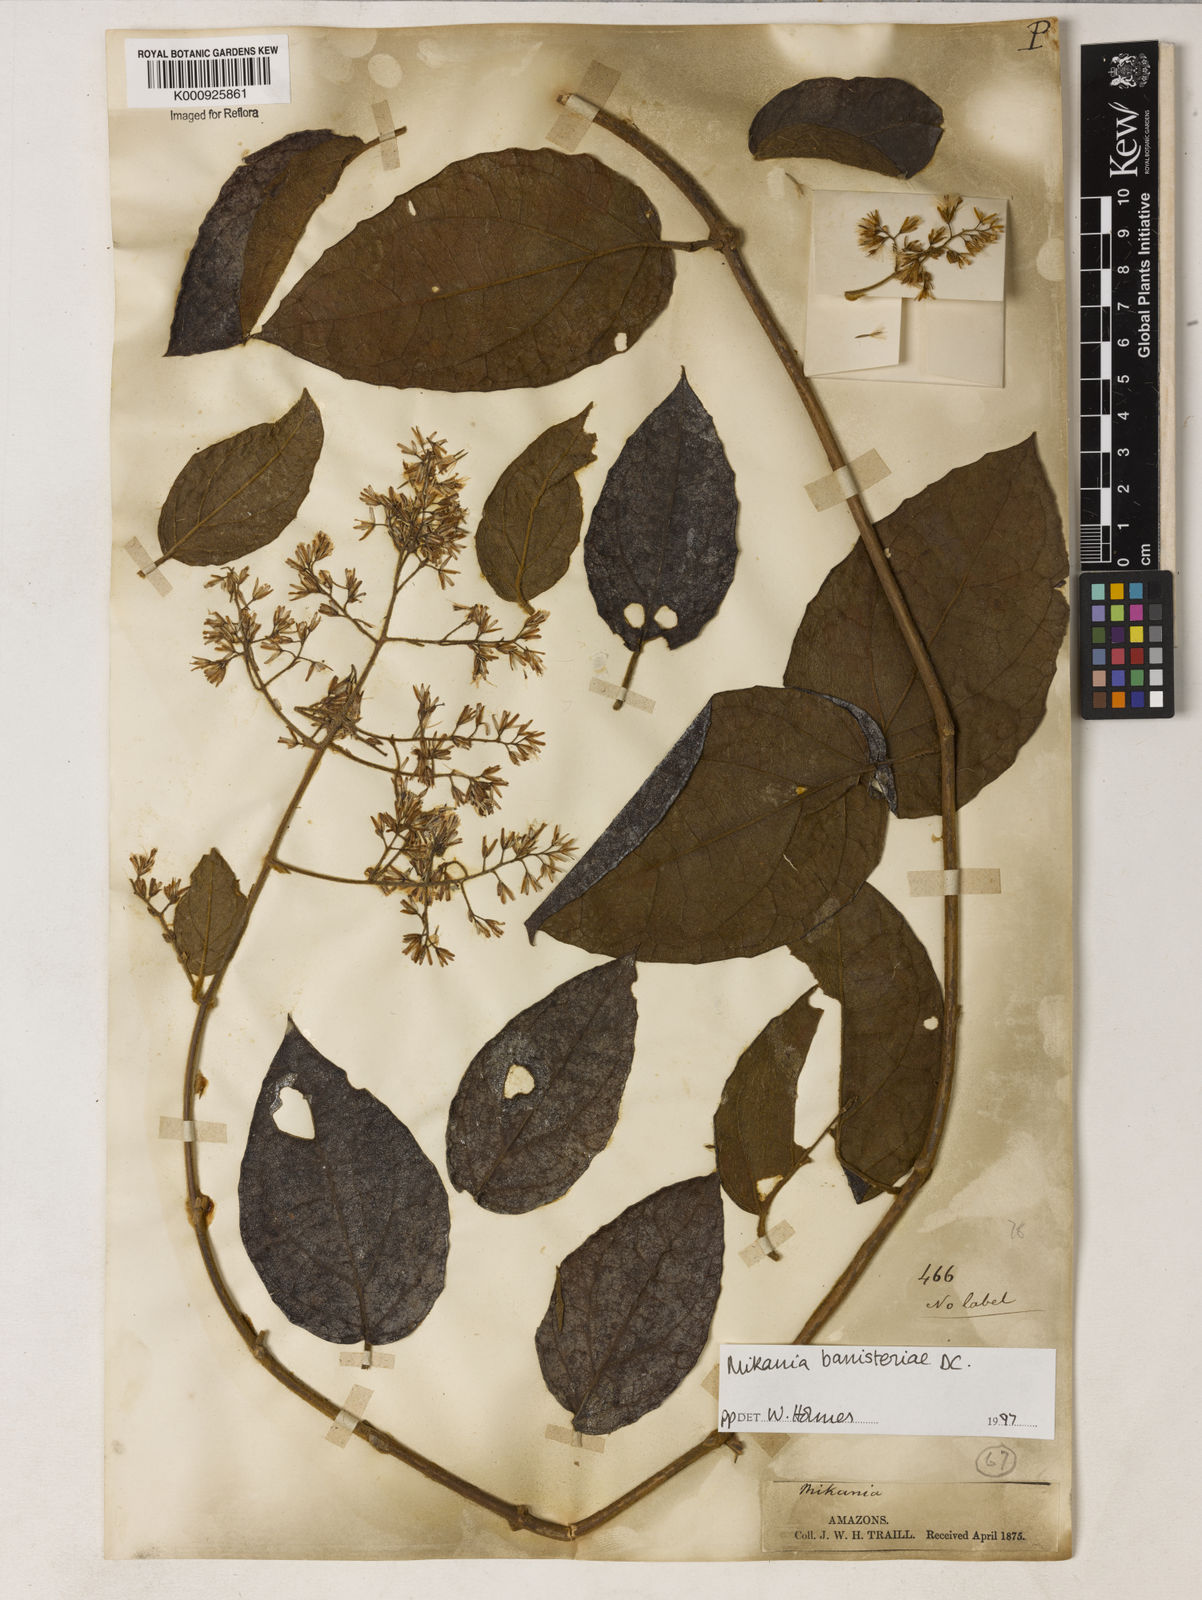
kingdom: Plantae
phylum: Tracheophyta
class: Magnoliopsida
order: Asterales
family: Asteraceae
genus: Mikania
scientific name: Mikania banisteriae
